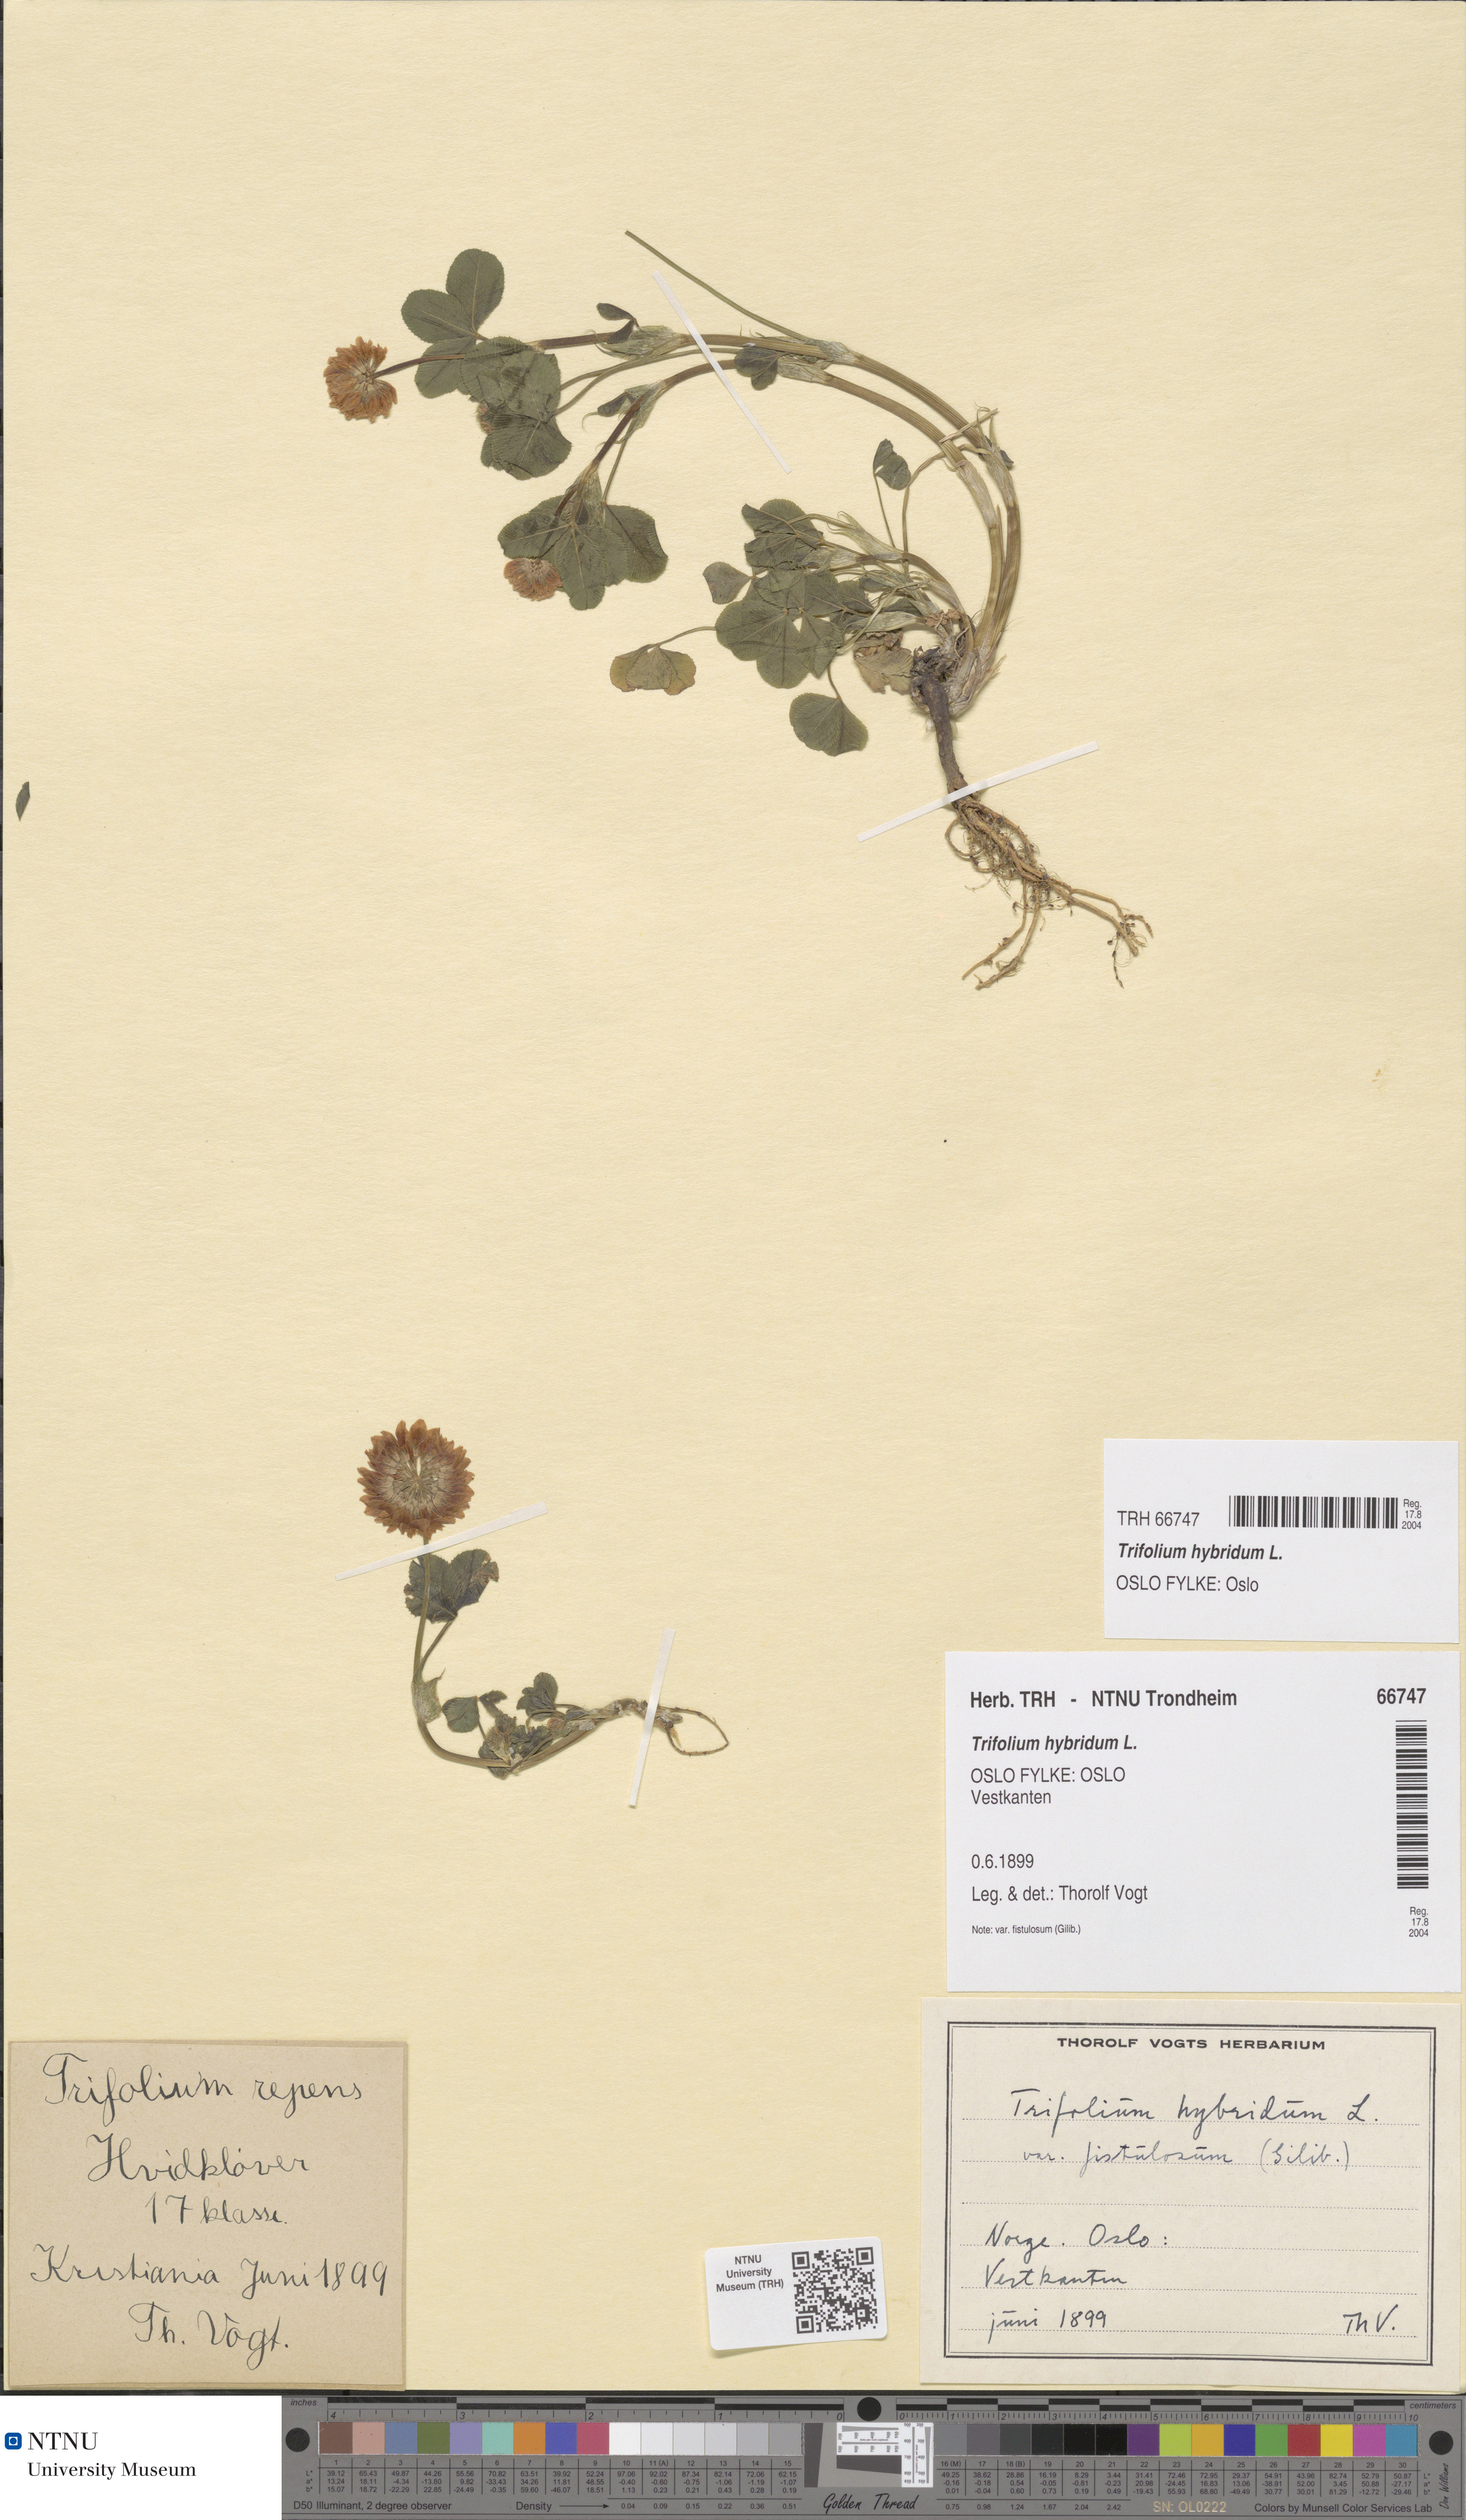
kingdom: Plantae
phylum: Tracheophyta
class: Magnoliopsida
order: Fabales
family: Fabaceae
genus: Trifolium
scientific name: Trifolium hybridum
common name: Alsike clover
